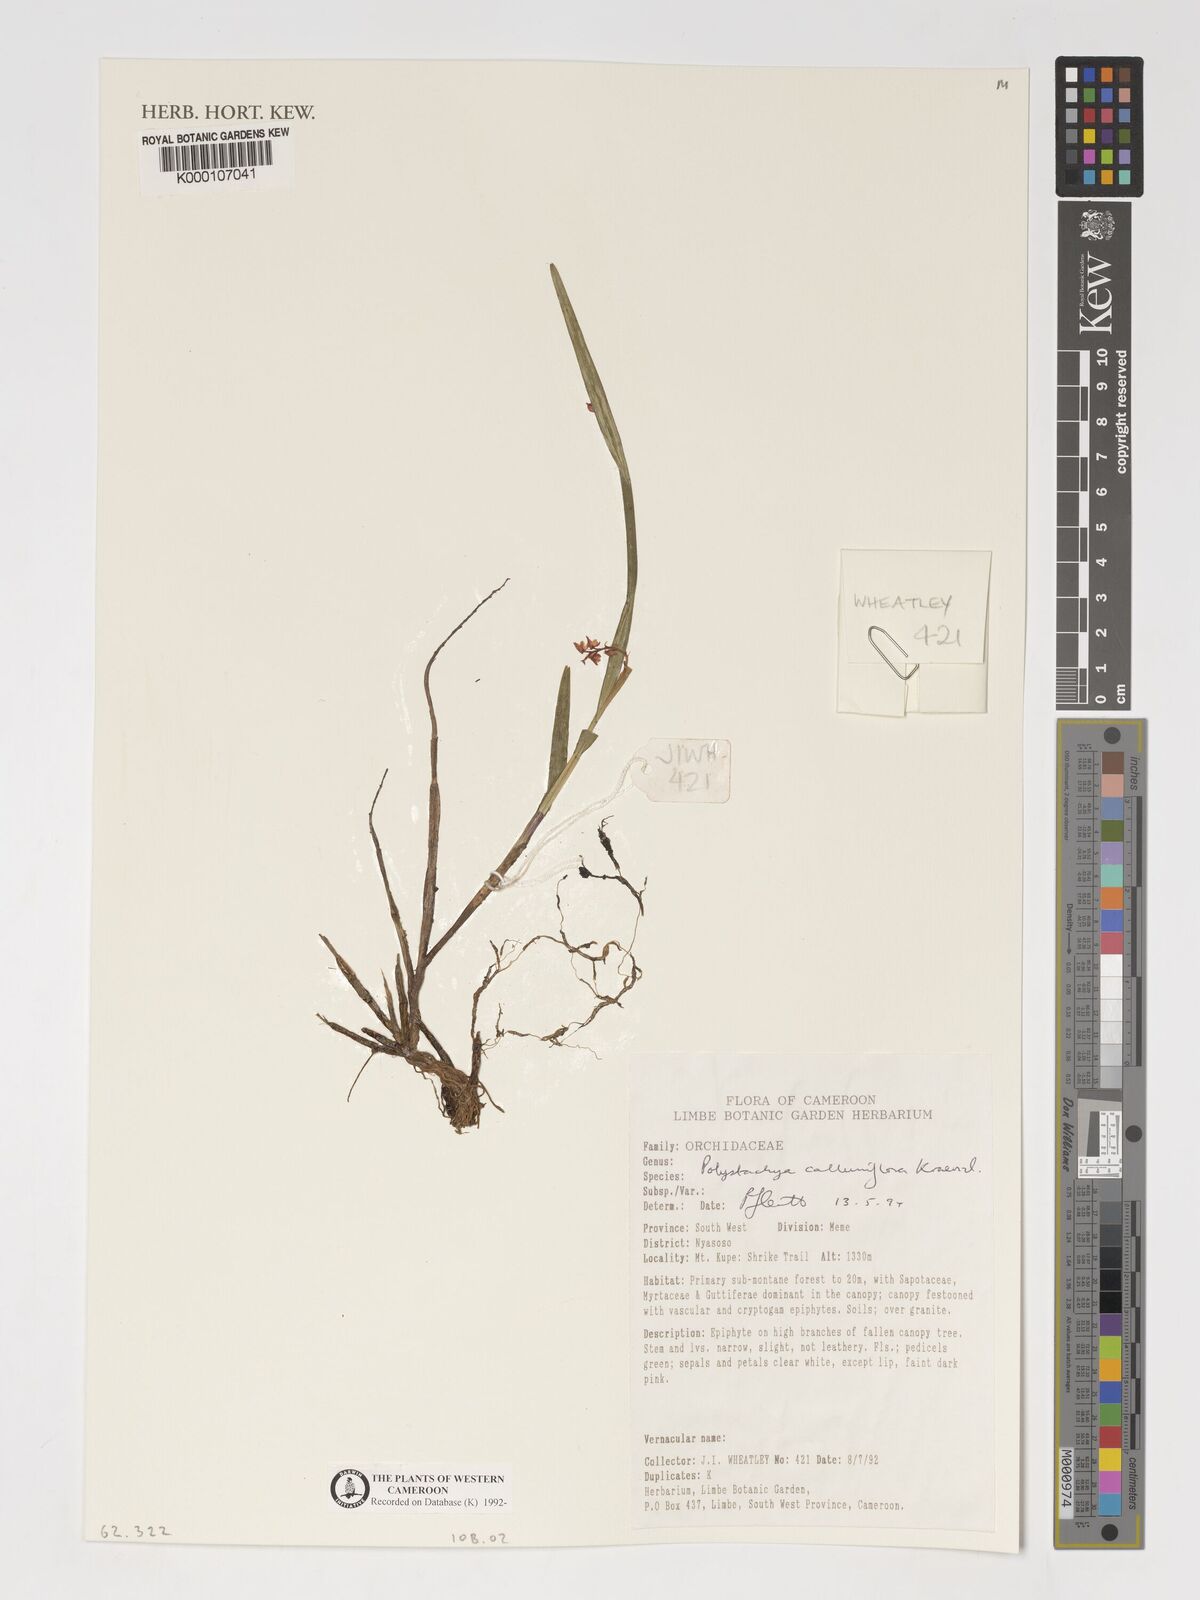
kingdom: Plantae
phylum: Tracheophyta
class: Liliopsida
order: Asparagales
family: Orchidaceae
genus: Polystachya
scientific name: Polystachya calluniflora
